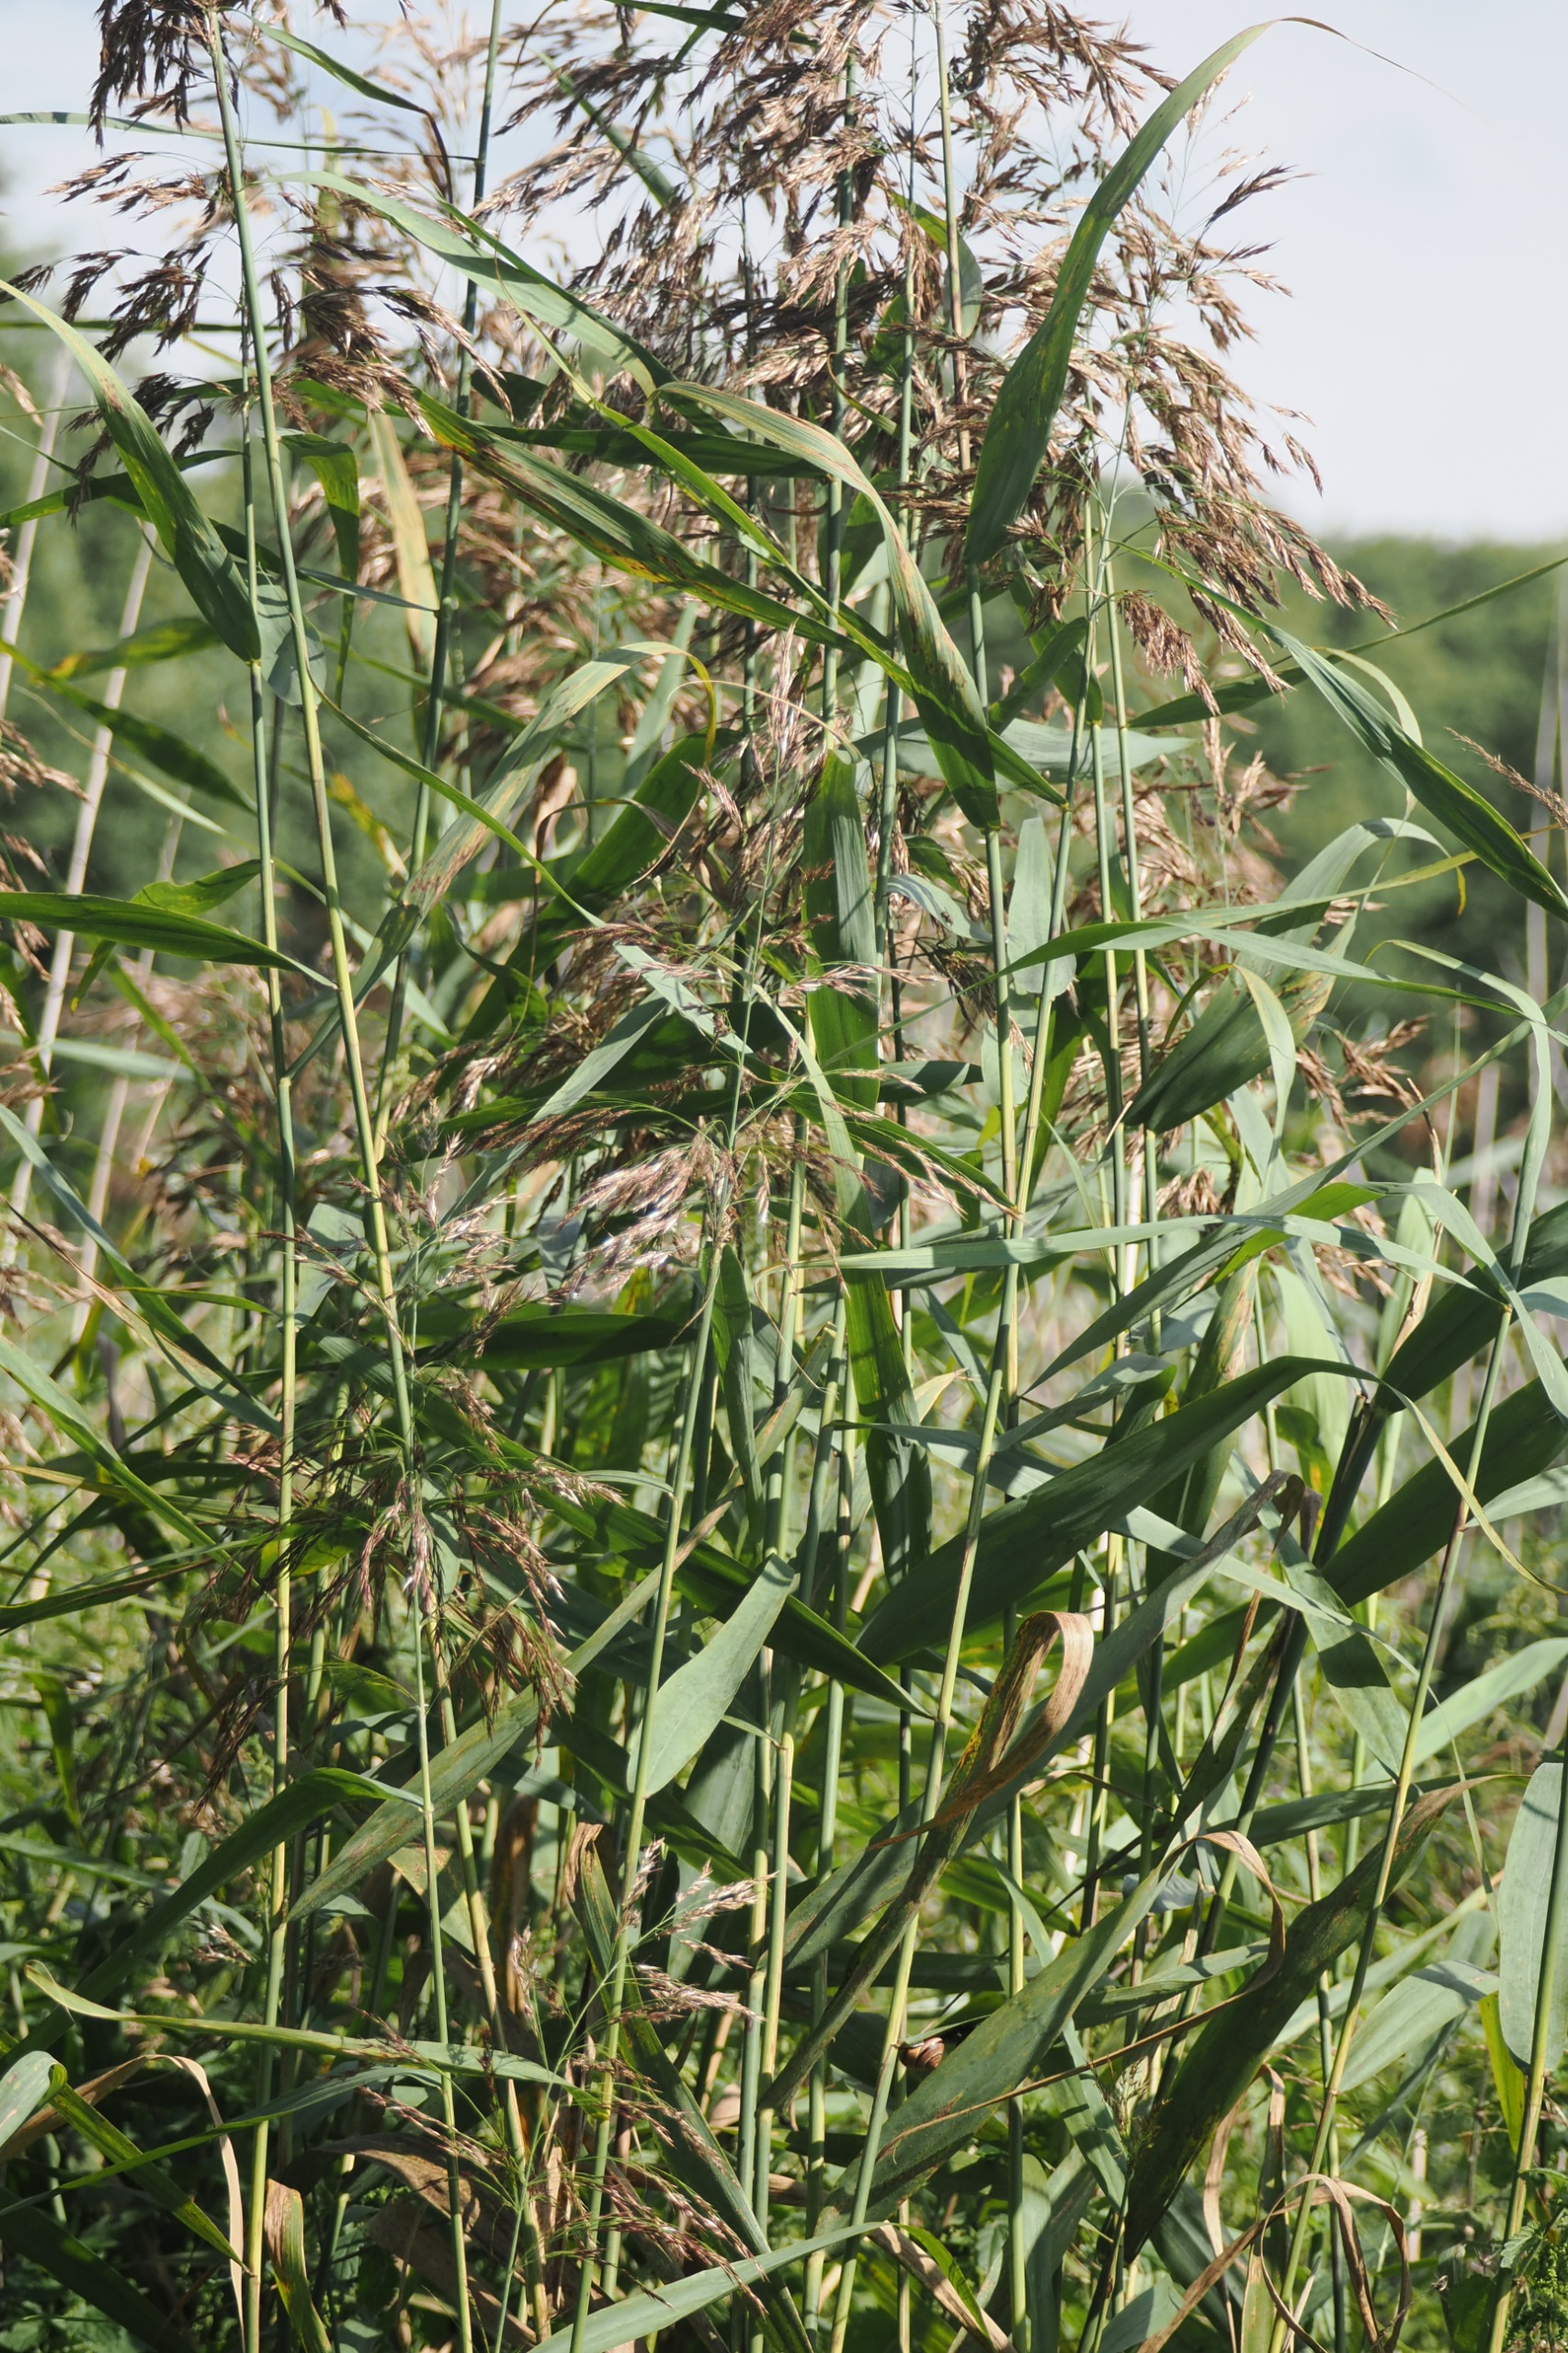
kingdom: Plantae
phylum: Tracheophyta
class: Liliopsida
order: Poales
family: Poaceae
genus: Phragmites
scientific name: Phragmites australis
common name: Tagrør
